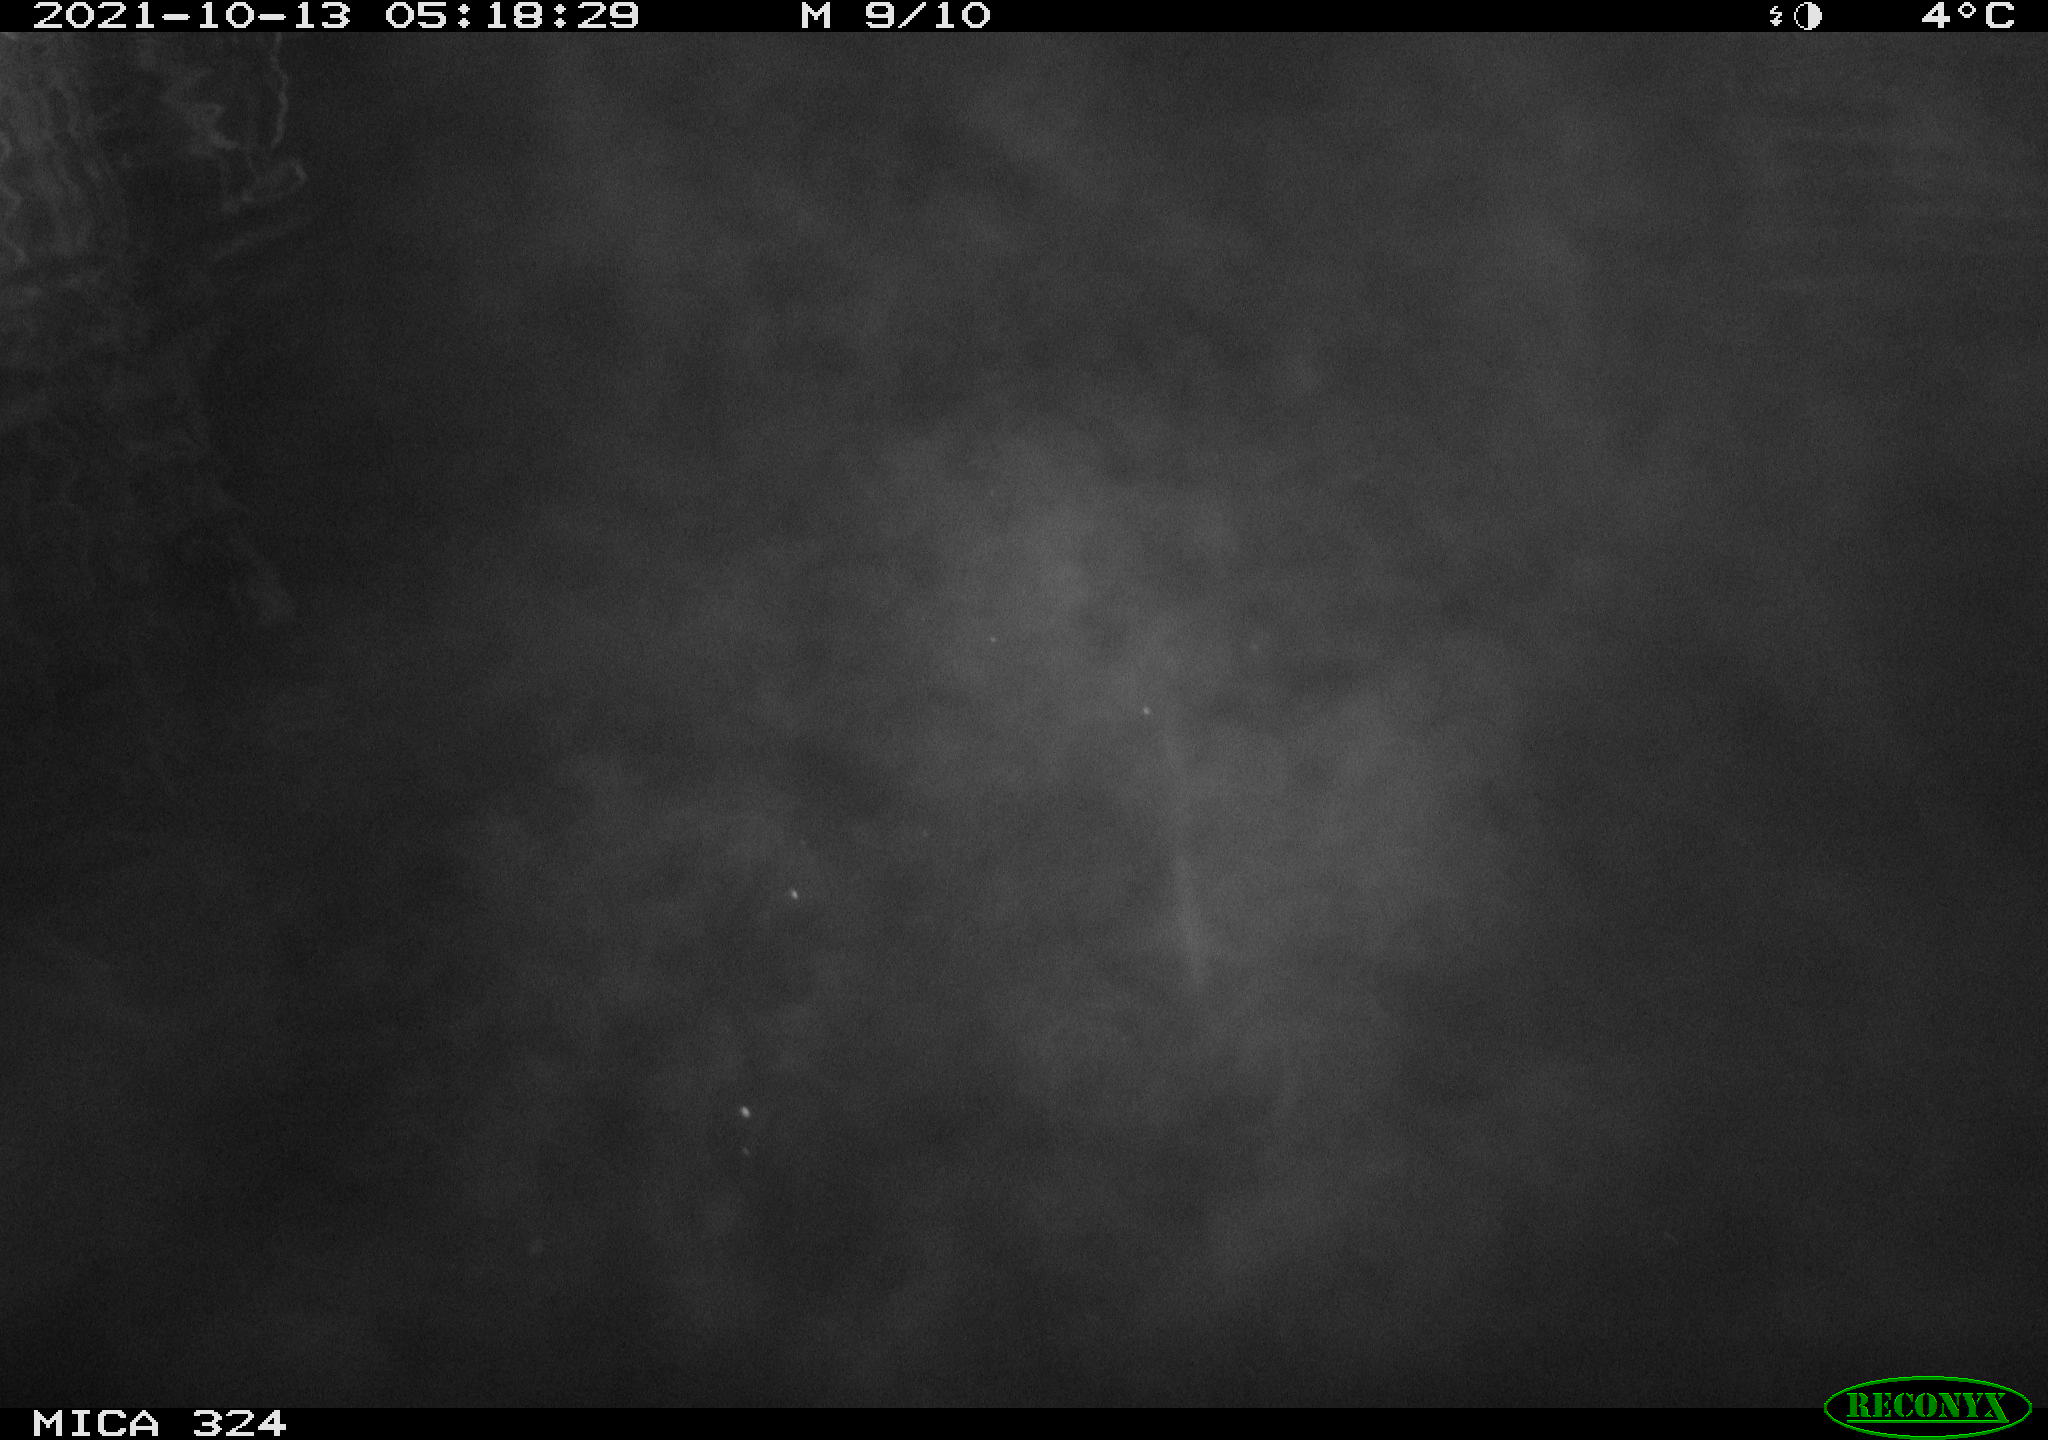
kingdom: Animalia
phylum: Chordata
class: Mammalia
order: Rodentia
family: Cricetidae
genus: Ondatra
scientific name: Ondatra zibethicus
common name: Muskrat
